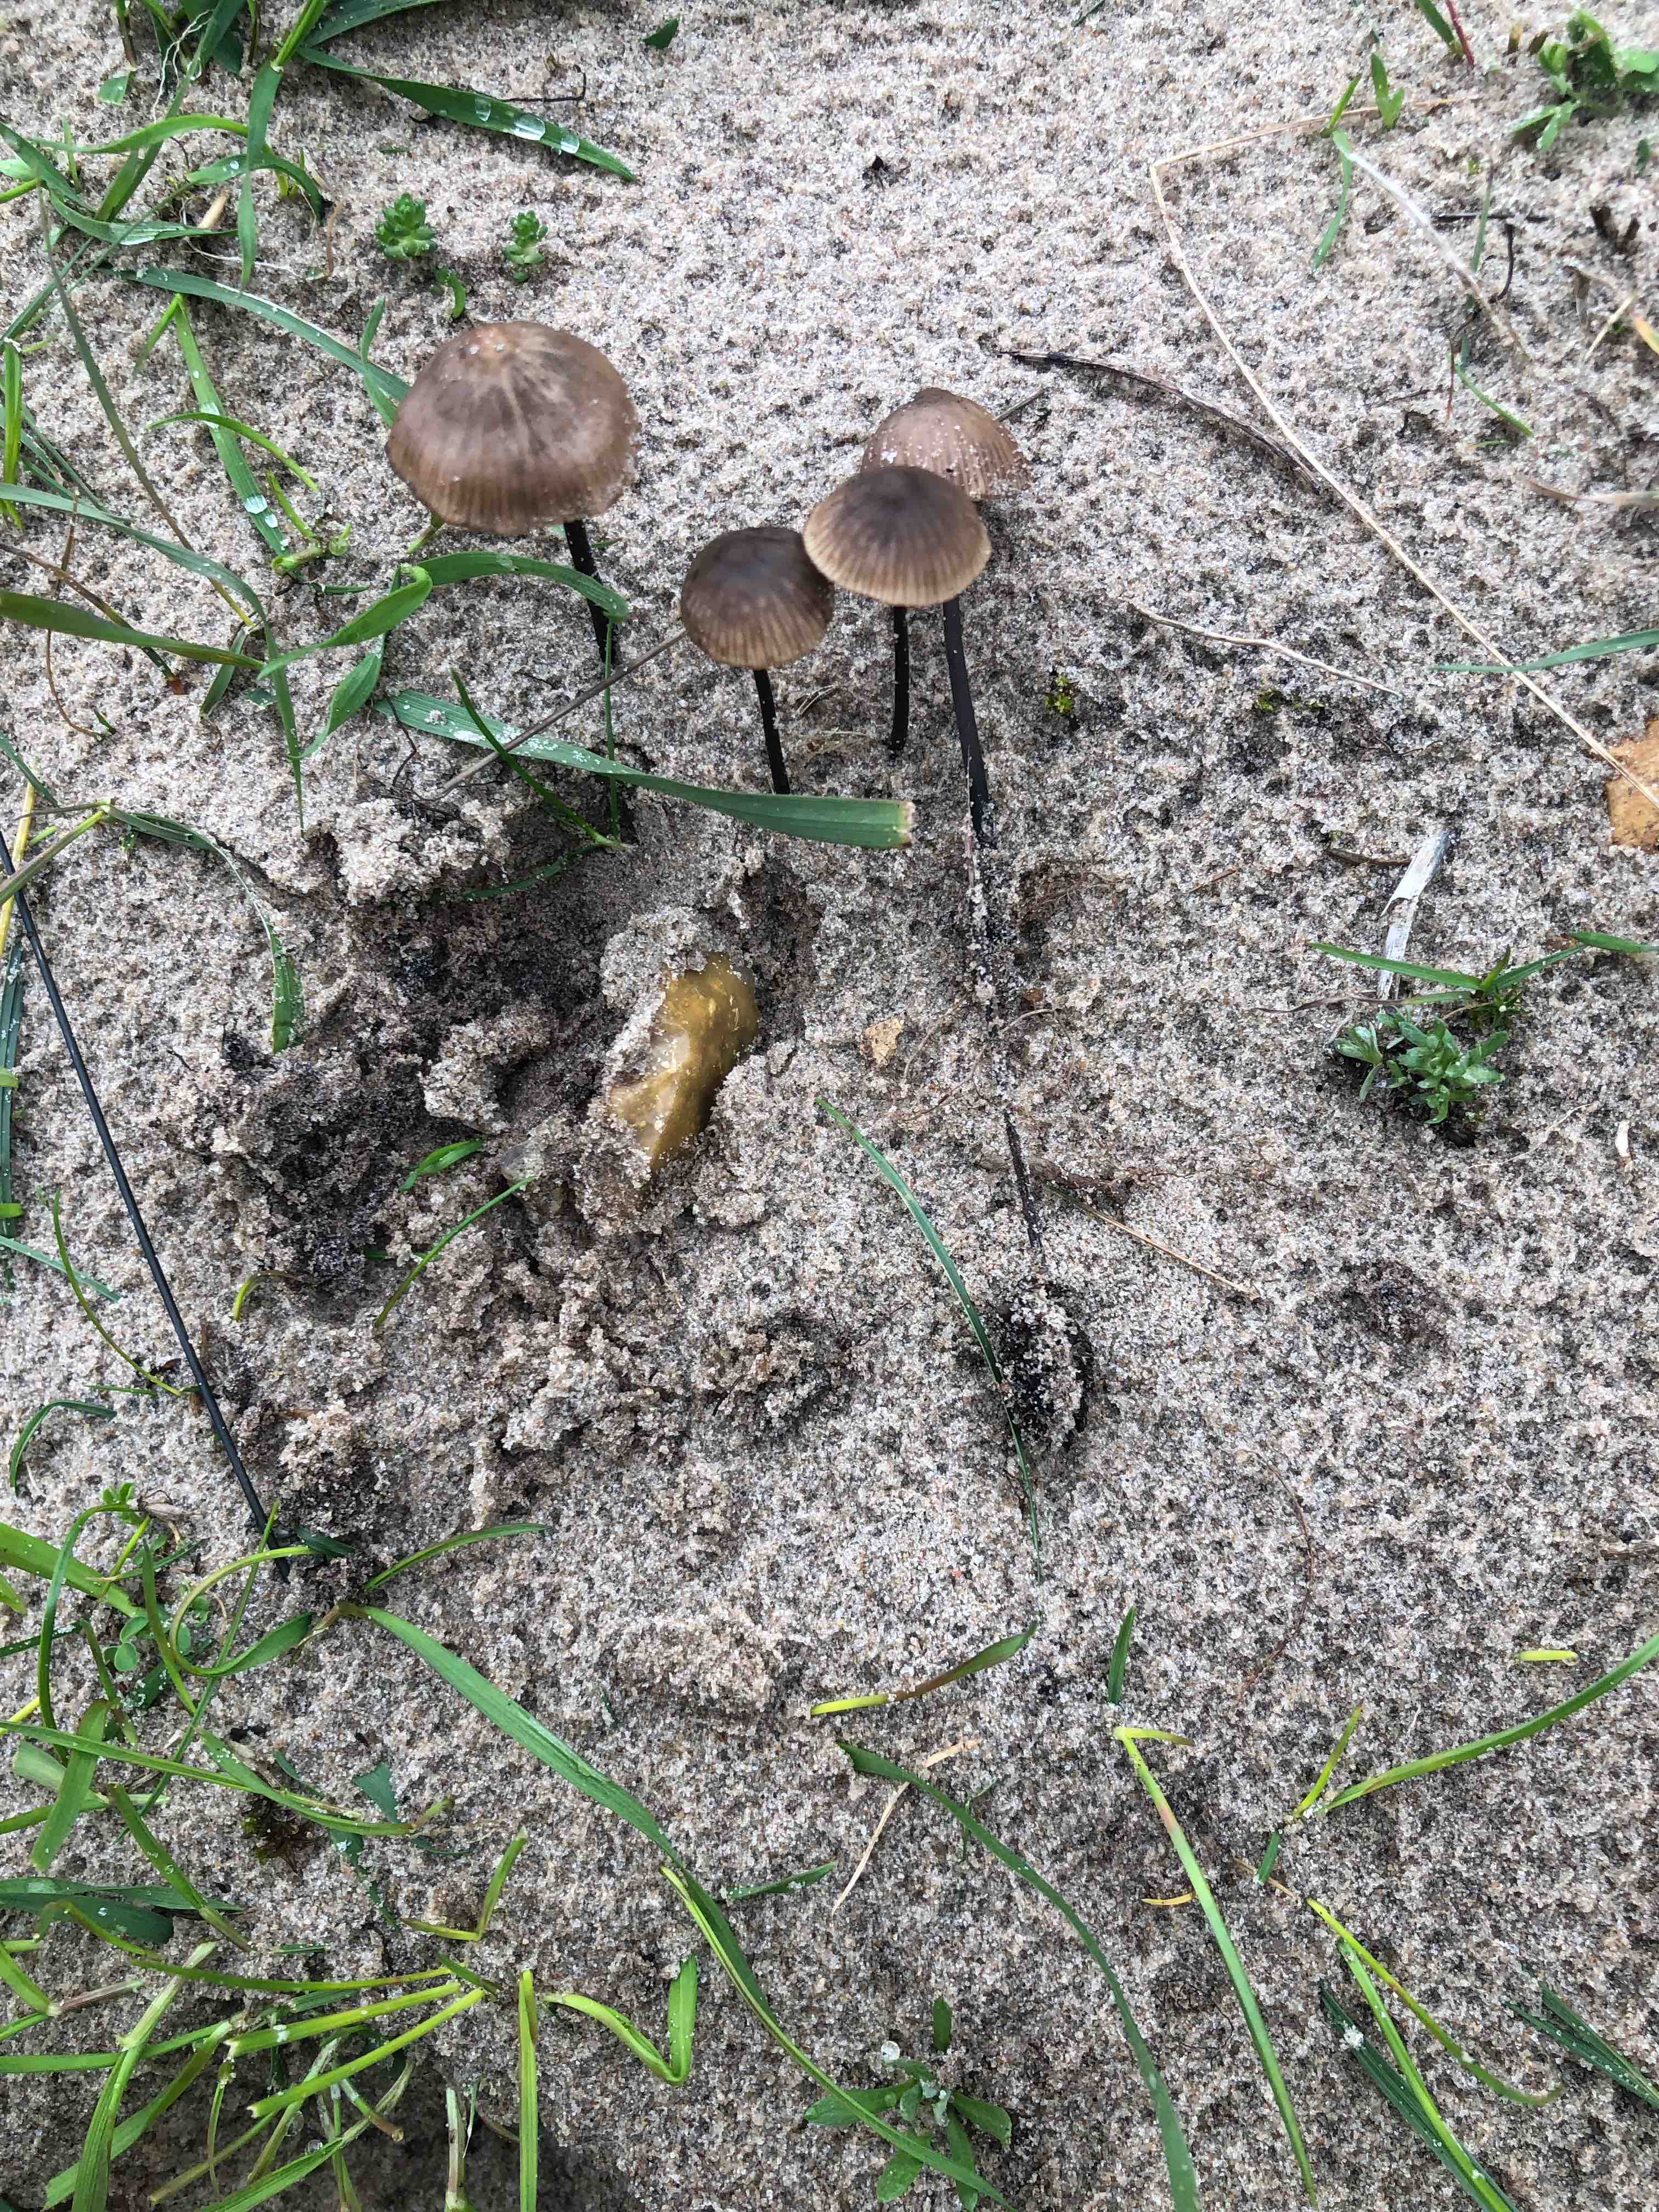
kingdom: Fungi
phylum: Basidiomycota
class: Agaricomycetes
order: Agaricales
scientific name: Agaricales
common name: champignonordenen
